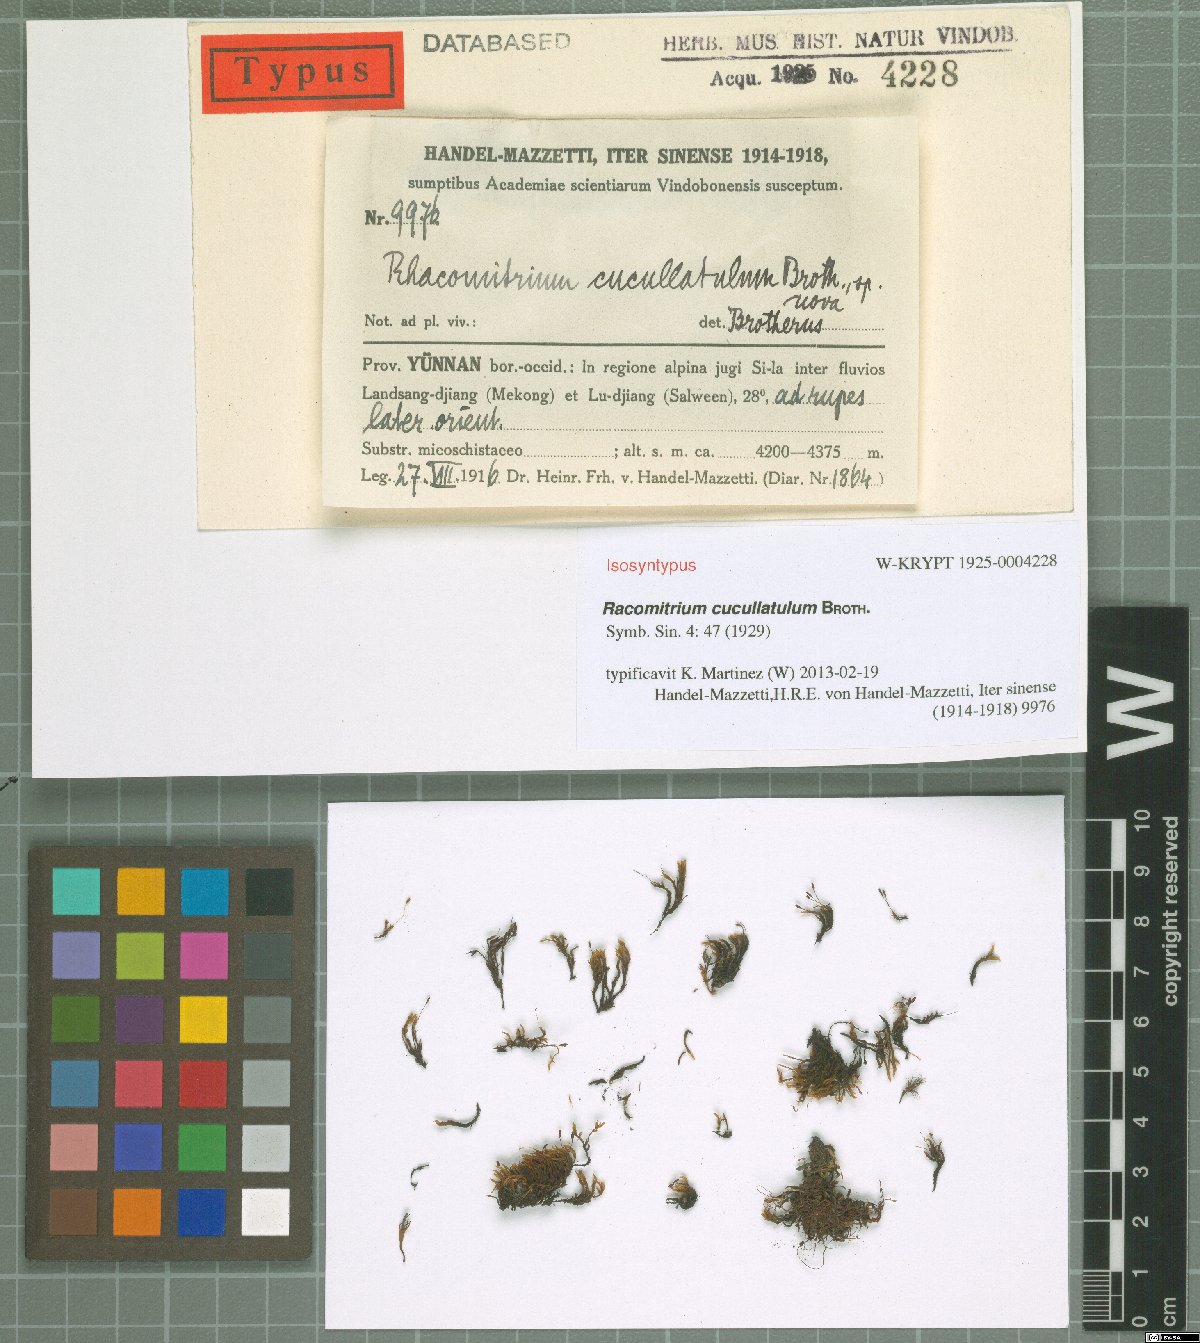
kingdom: Plantae
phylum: Bryophyta
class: Bryopsida
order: Grimmiales
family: Grimmiaceae
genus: Bucklandiella
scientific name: Bucklandiella cucullatula
